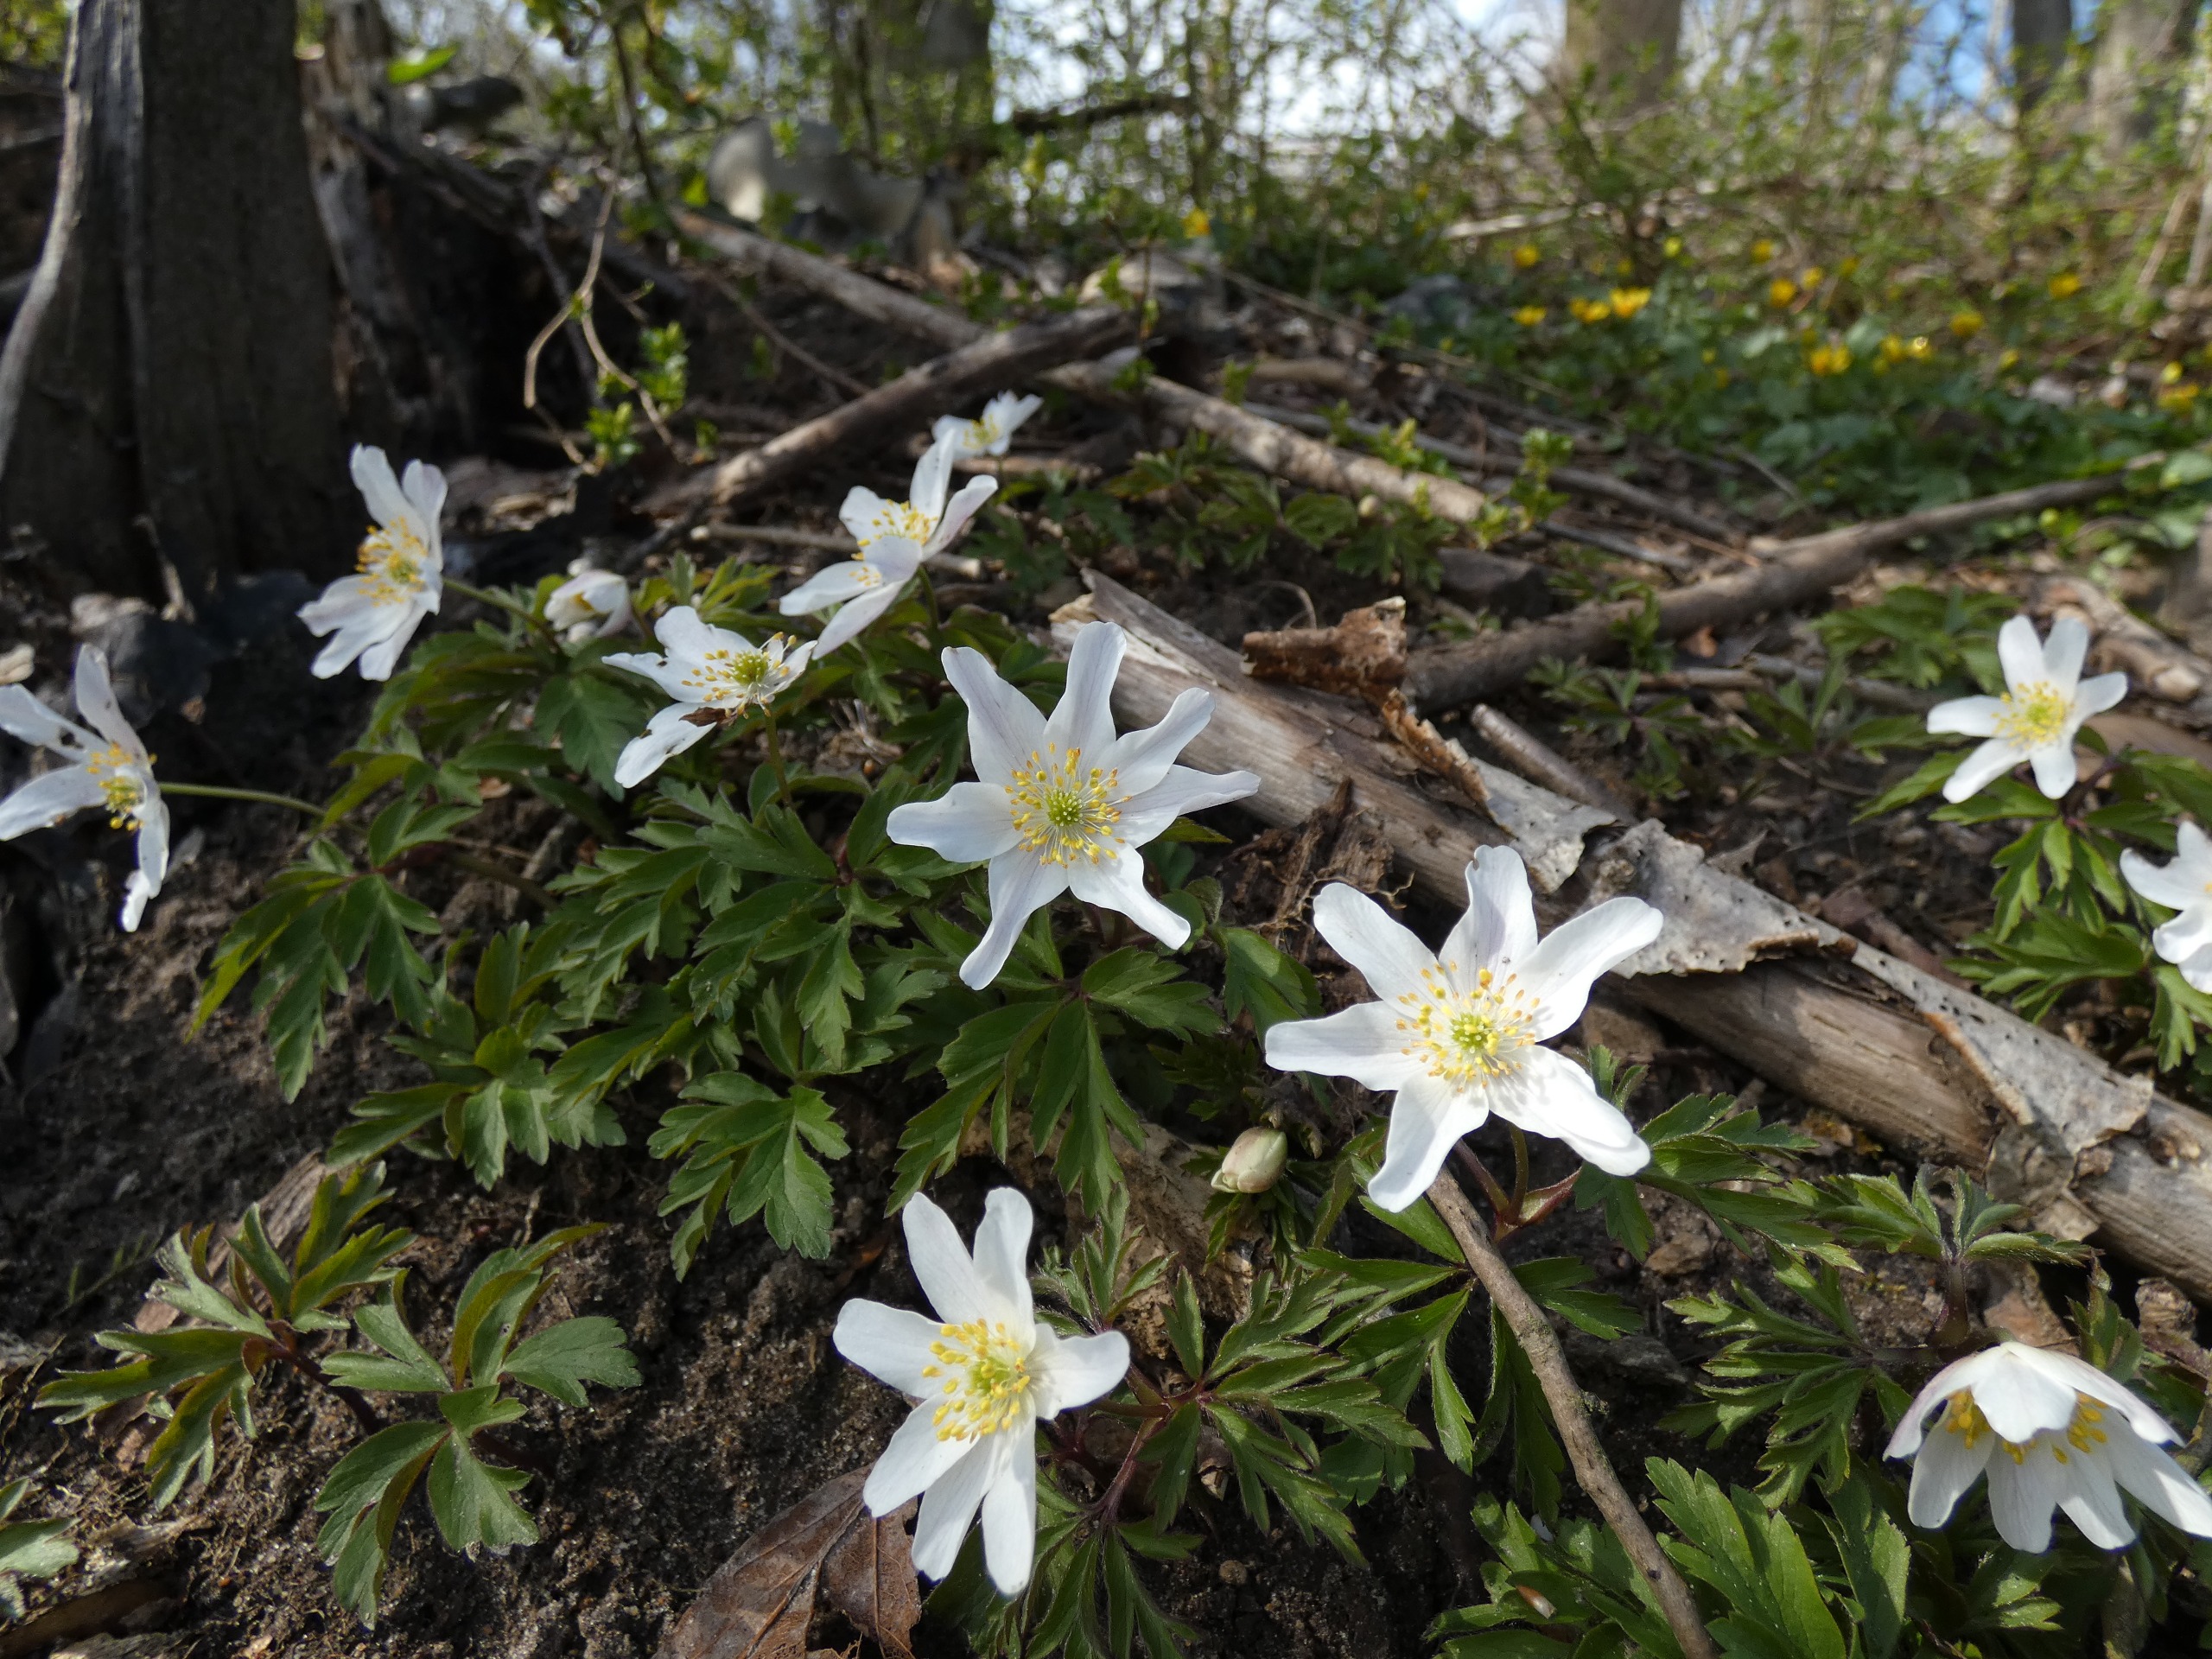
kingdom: Plantae
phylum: Tracheophyta
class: Magnoliopsida
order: Ranunculales
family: Ranunculaceae
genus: Anemone
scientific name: Anemone nemorosa
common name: Hvid anemone
